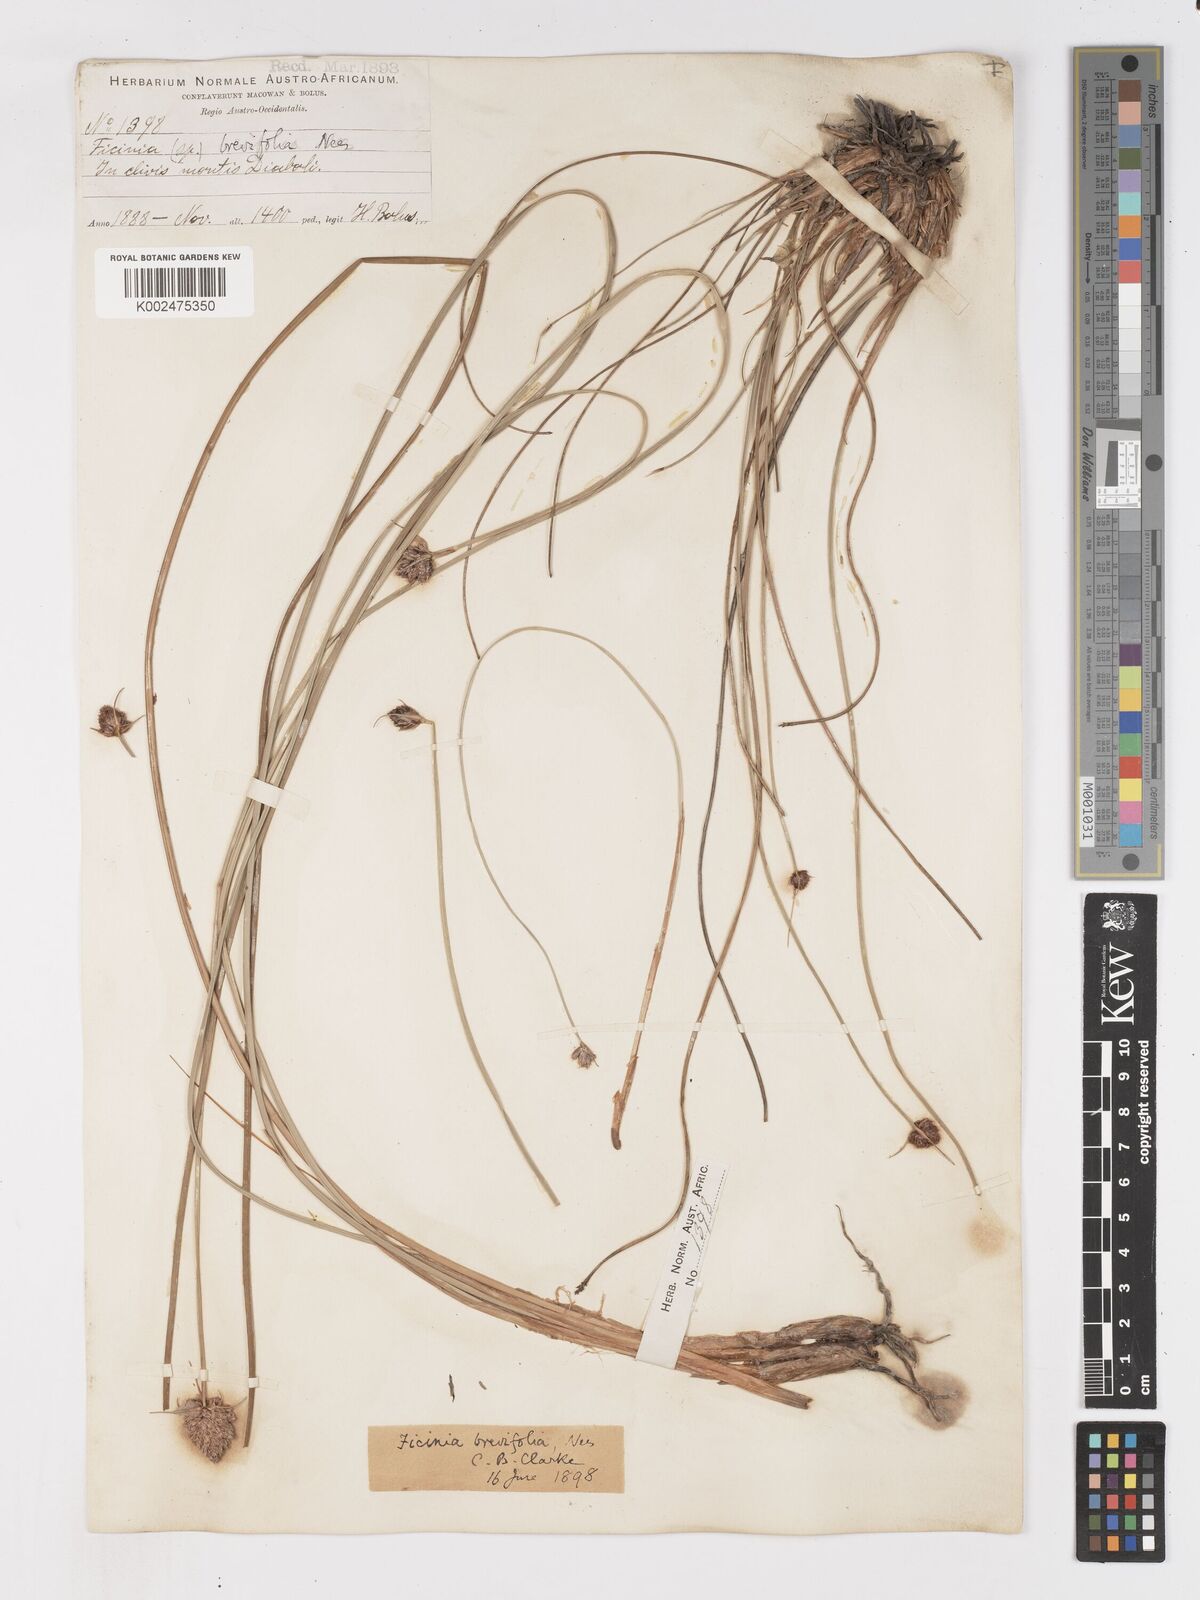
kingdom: Plantae
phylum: Tracheophyta
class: Liliopsida
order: Poales
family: Cyperaceae
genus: Ficinia
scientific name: Ficinia brevifolia
